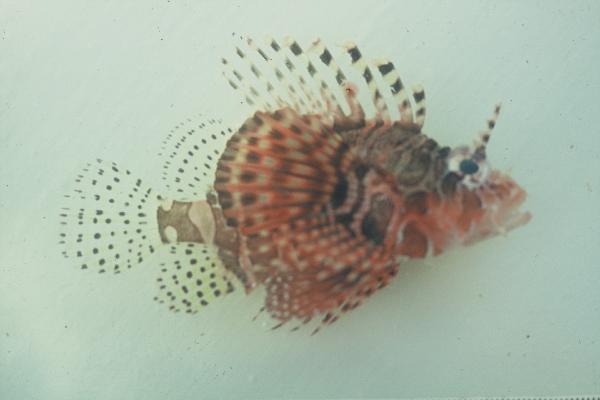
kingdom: Animalia
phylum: Chordata
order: Scorpaeniformes
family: Scorpaenidae
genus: Dendrochirus
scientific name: Dendrochirus zebra
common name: Zebra lionfish
